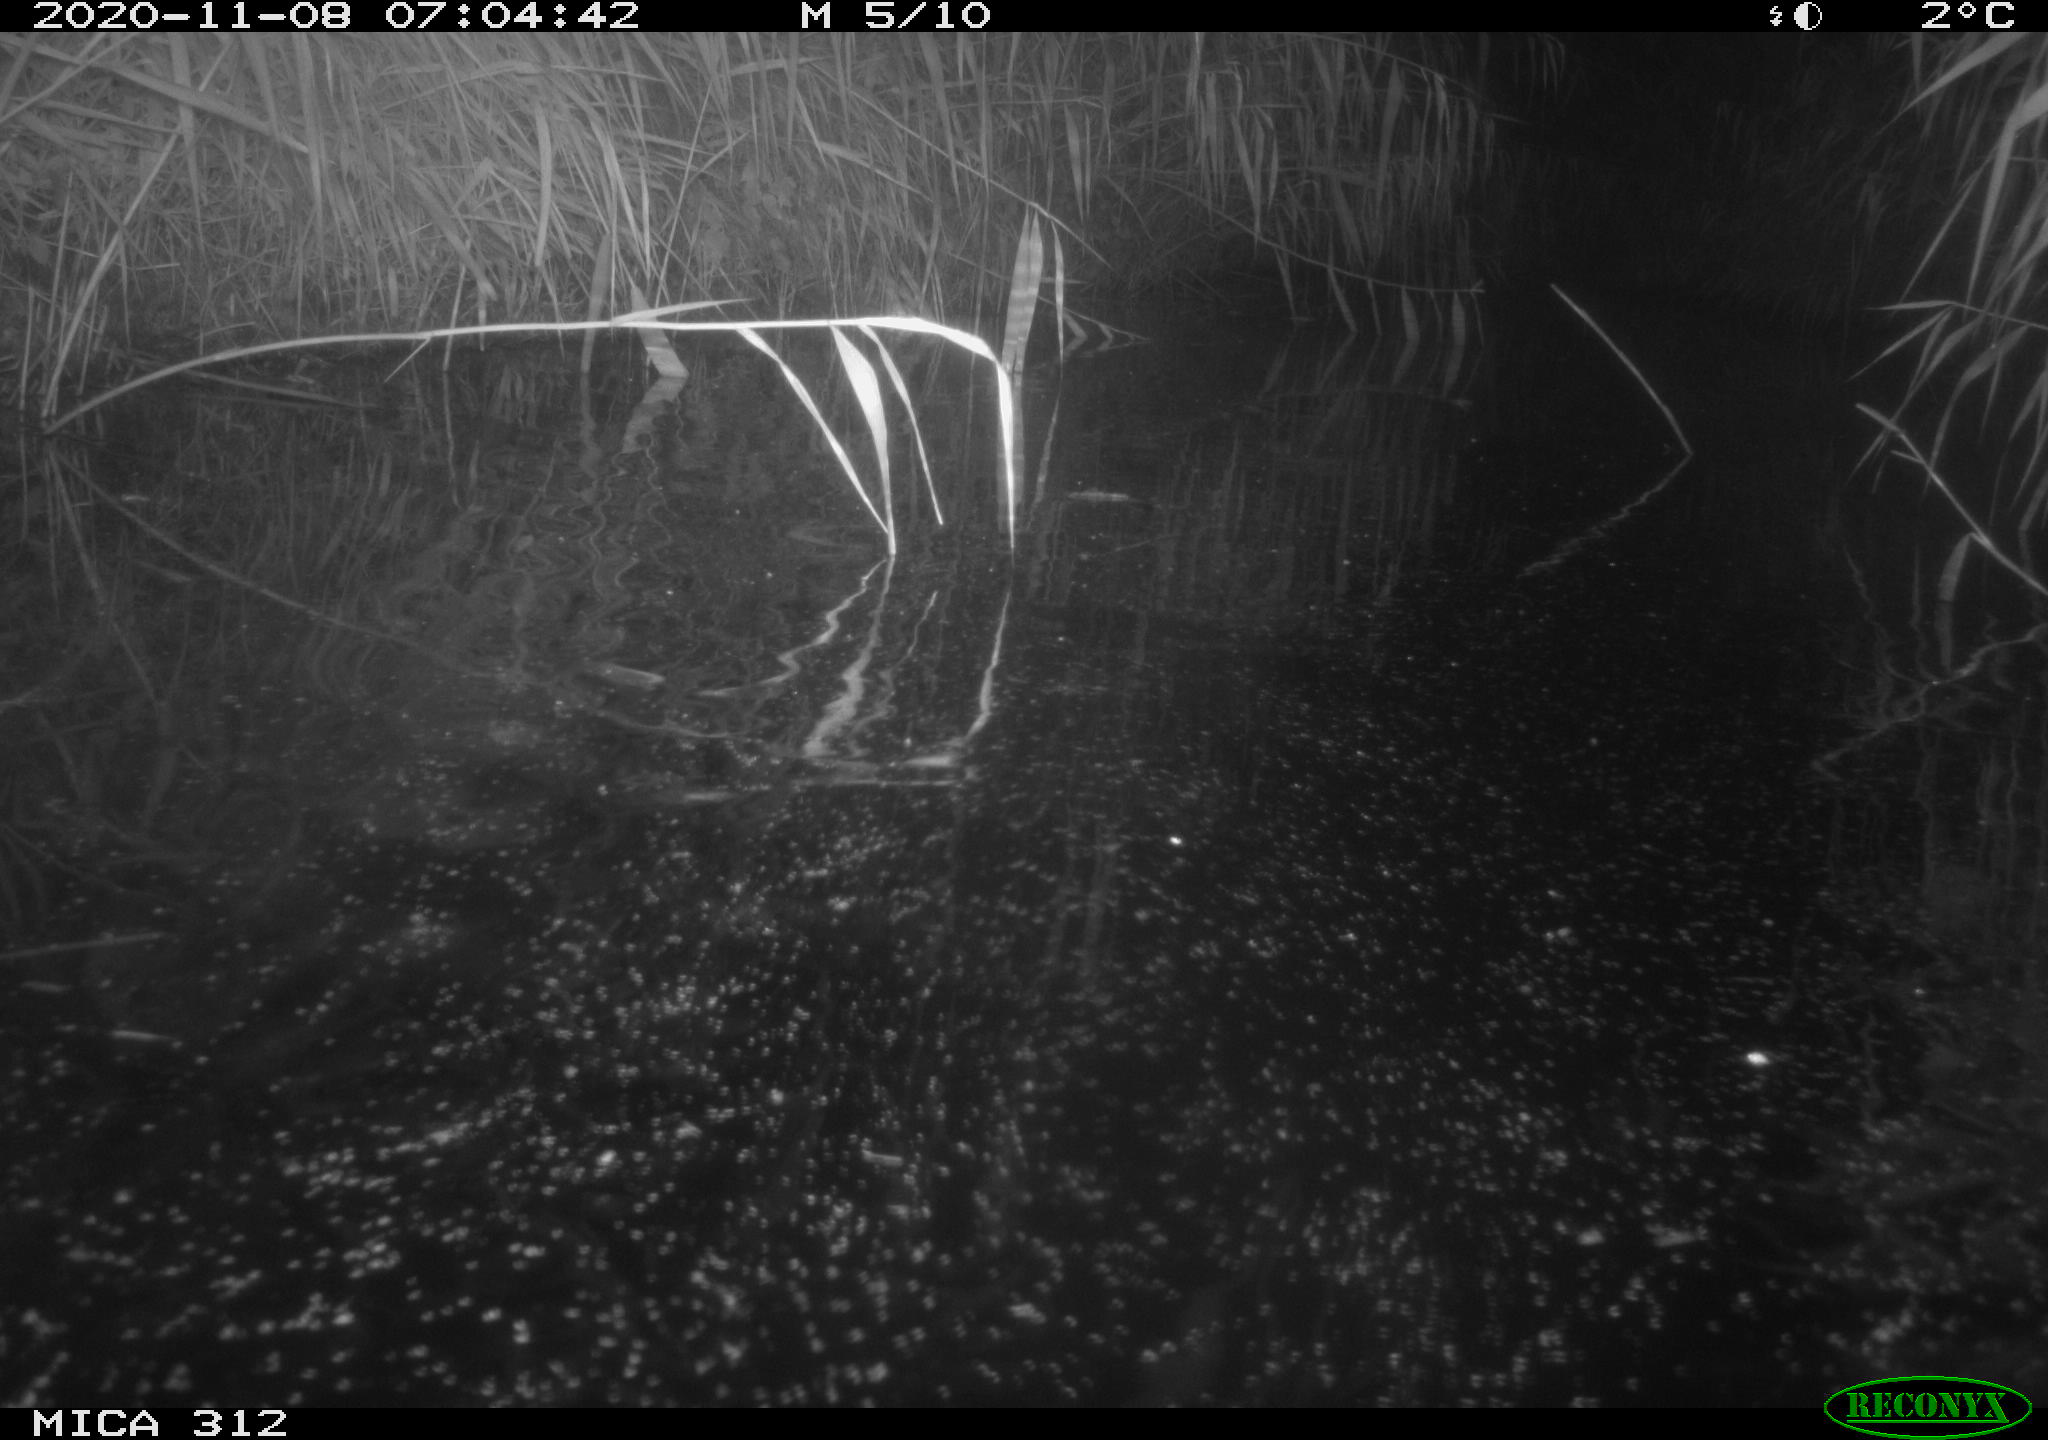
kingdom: Animalia
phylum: Chordata
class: Mammalia
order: Rodentia
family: Muridae
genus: Rattus
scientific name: Rattus norvegicus
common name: Brown rat
